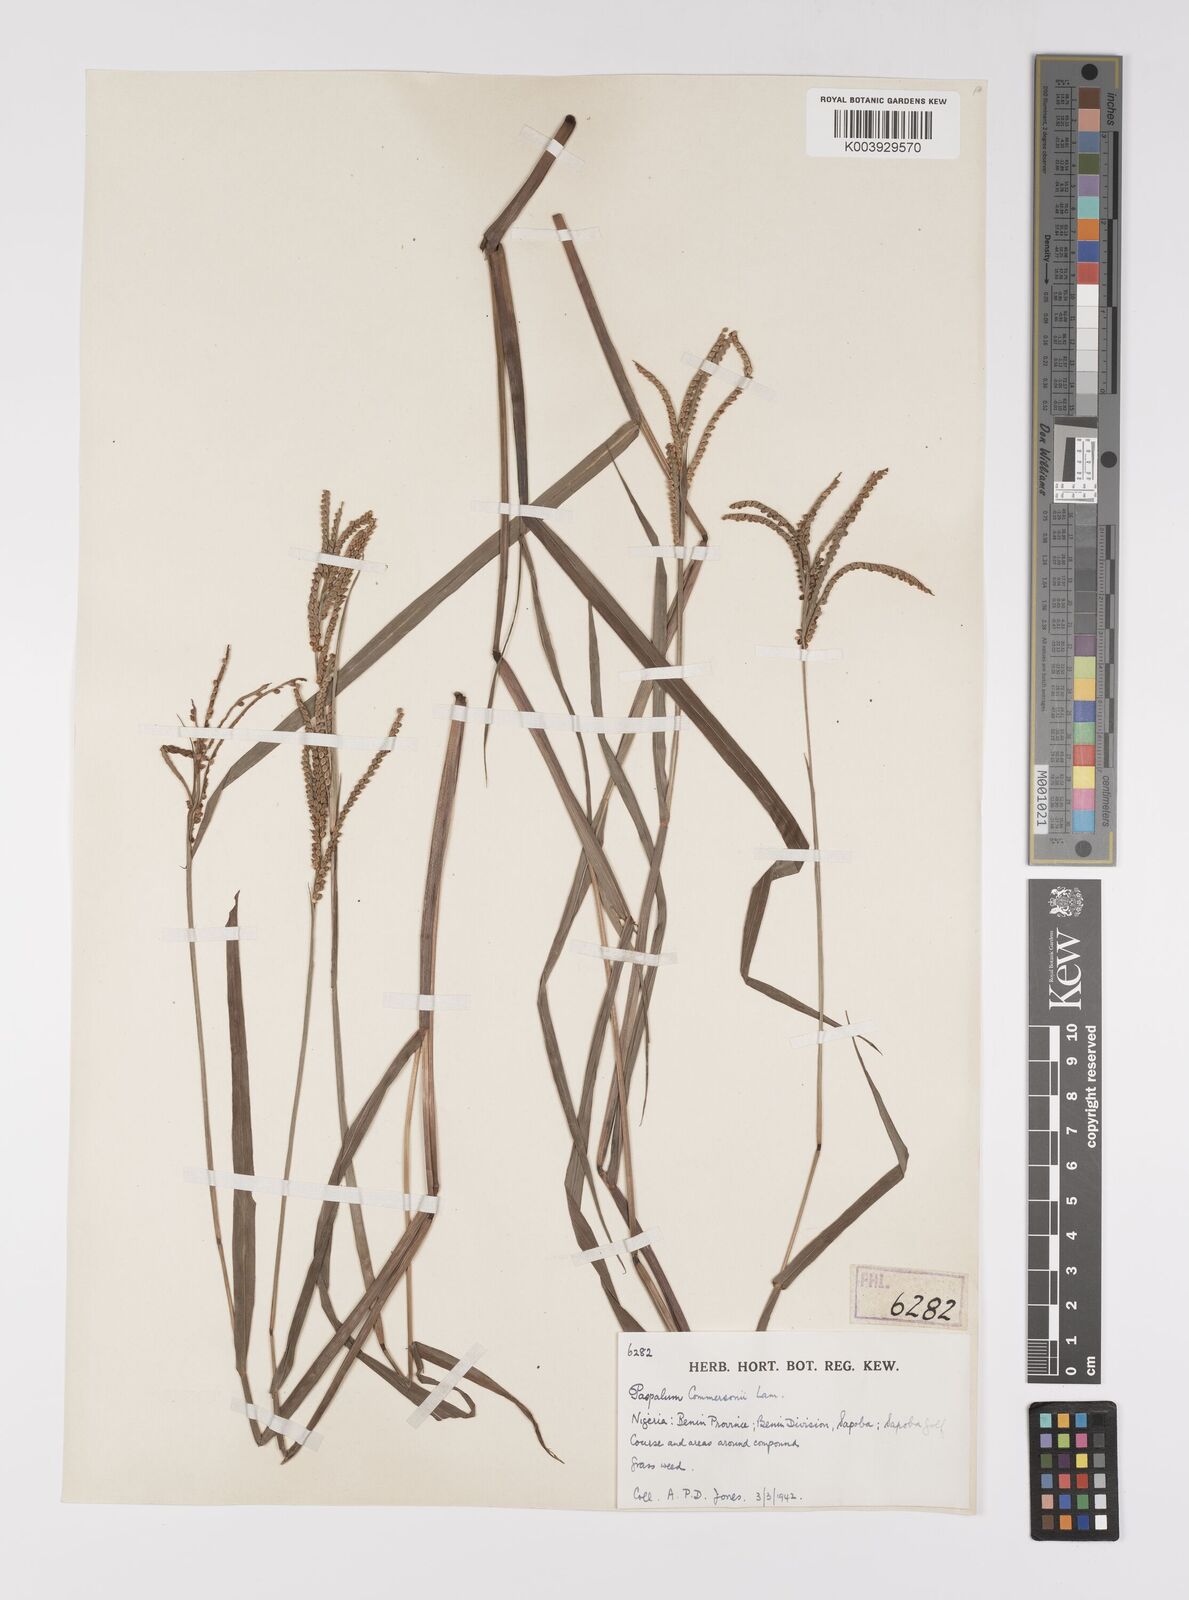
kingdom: Plantae
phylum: Tracheophyta
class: Liliopsida
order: Poales
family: Poaceae
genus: Paspalum
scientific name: Paspalum scrobiculatum
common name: Kodo millet
